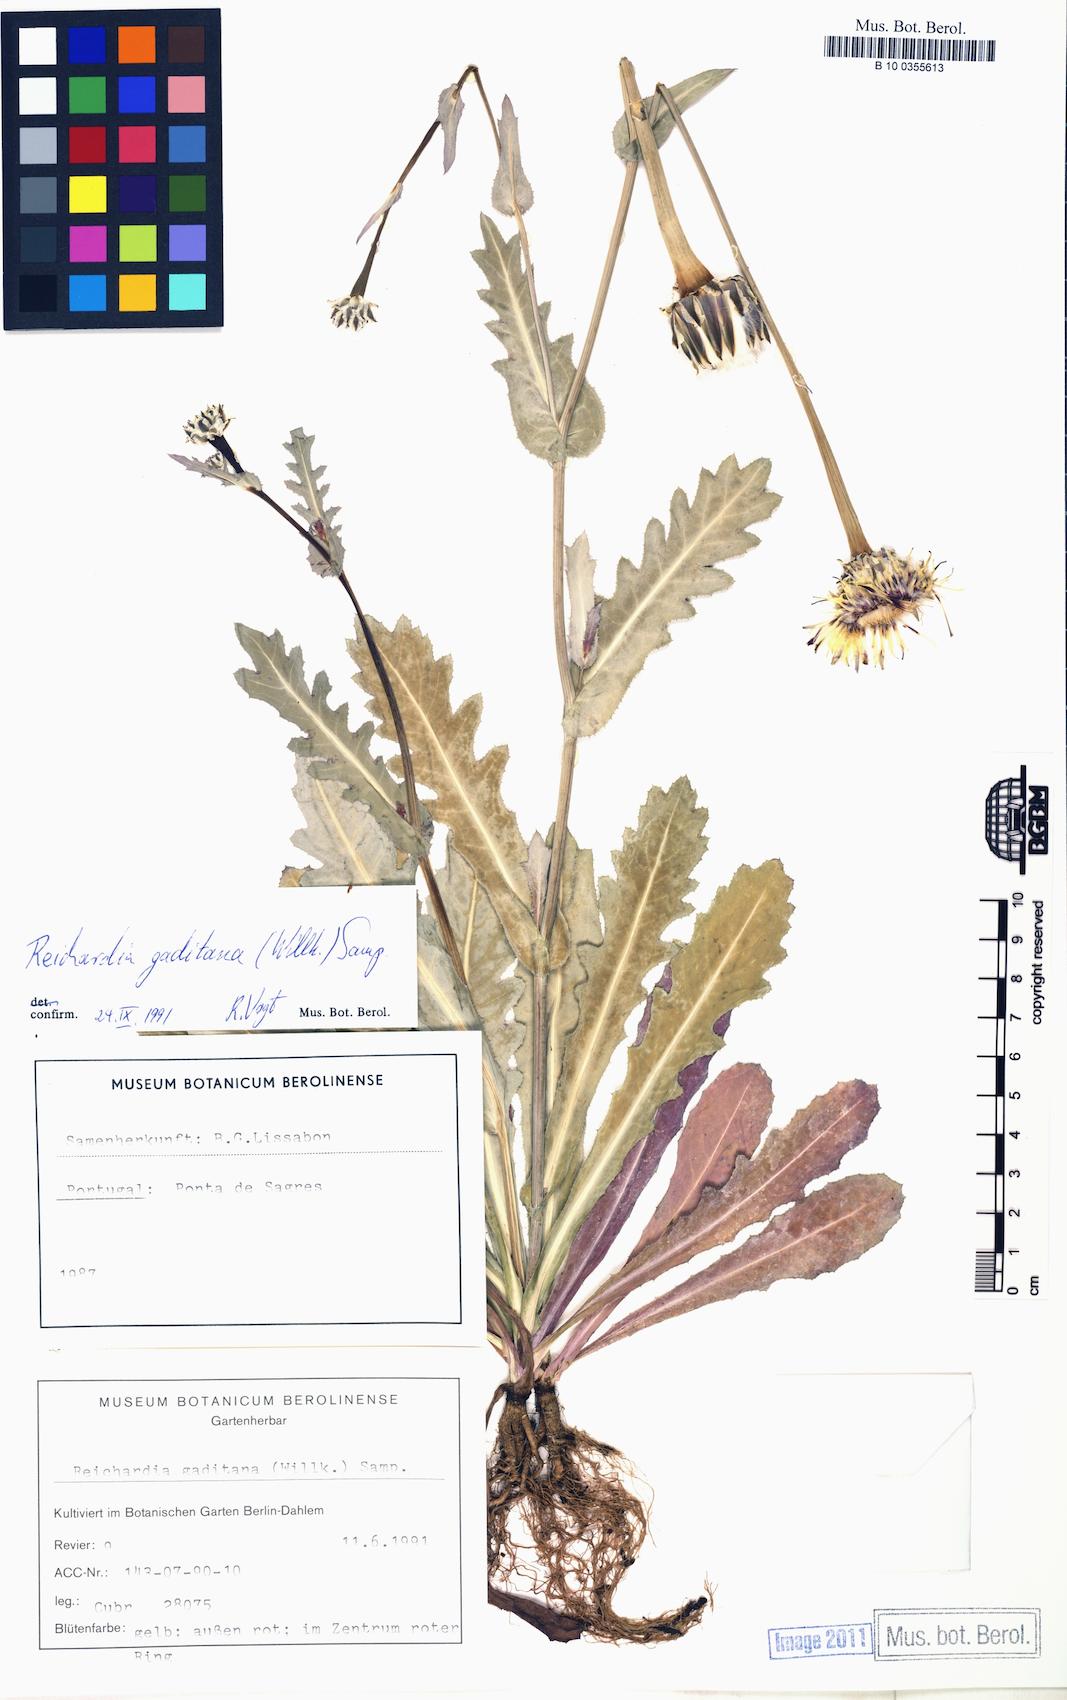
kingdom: Plantae
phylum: Tracheophyta
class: Magnoliopsida
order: Asterales
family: Asteraceae
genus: Reichardia
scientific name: Reichardia gaditana
